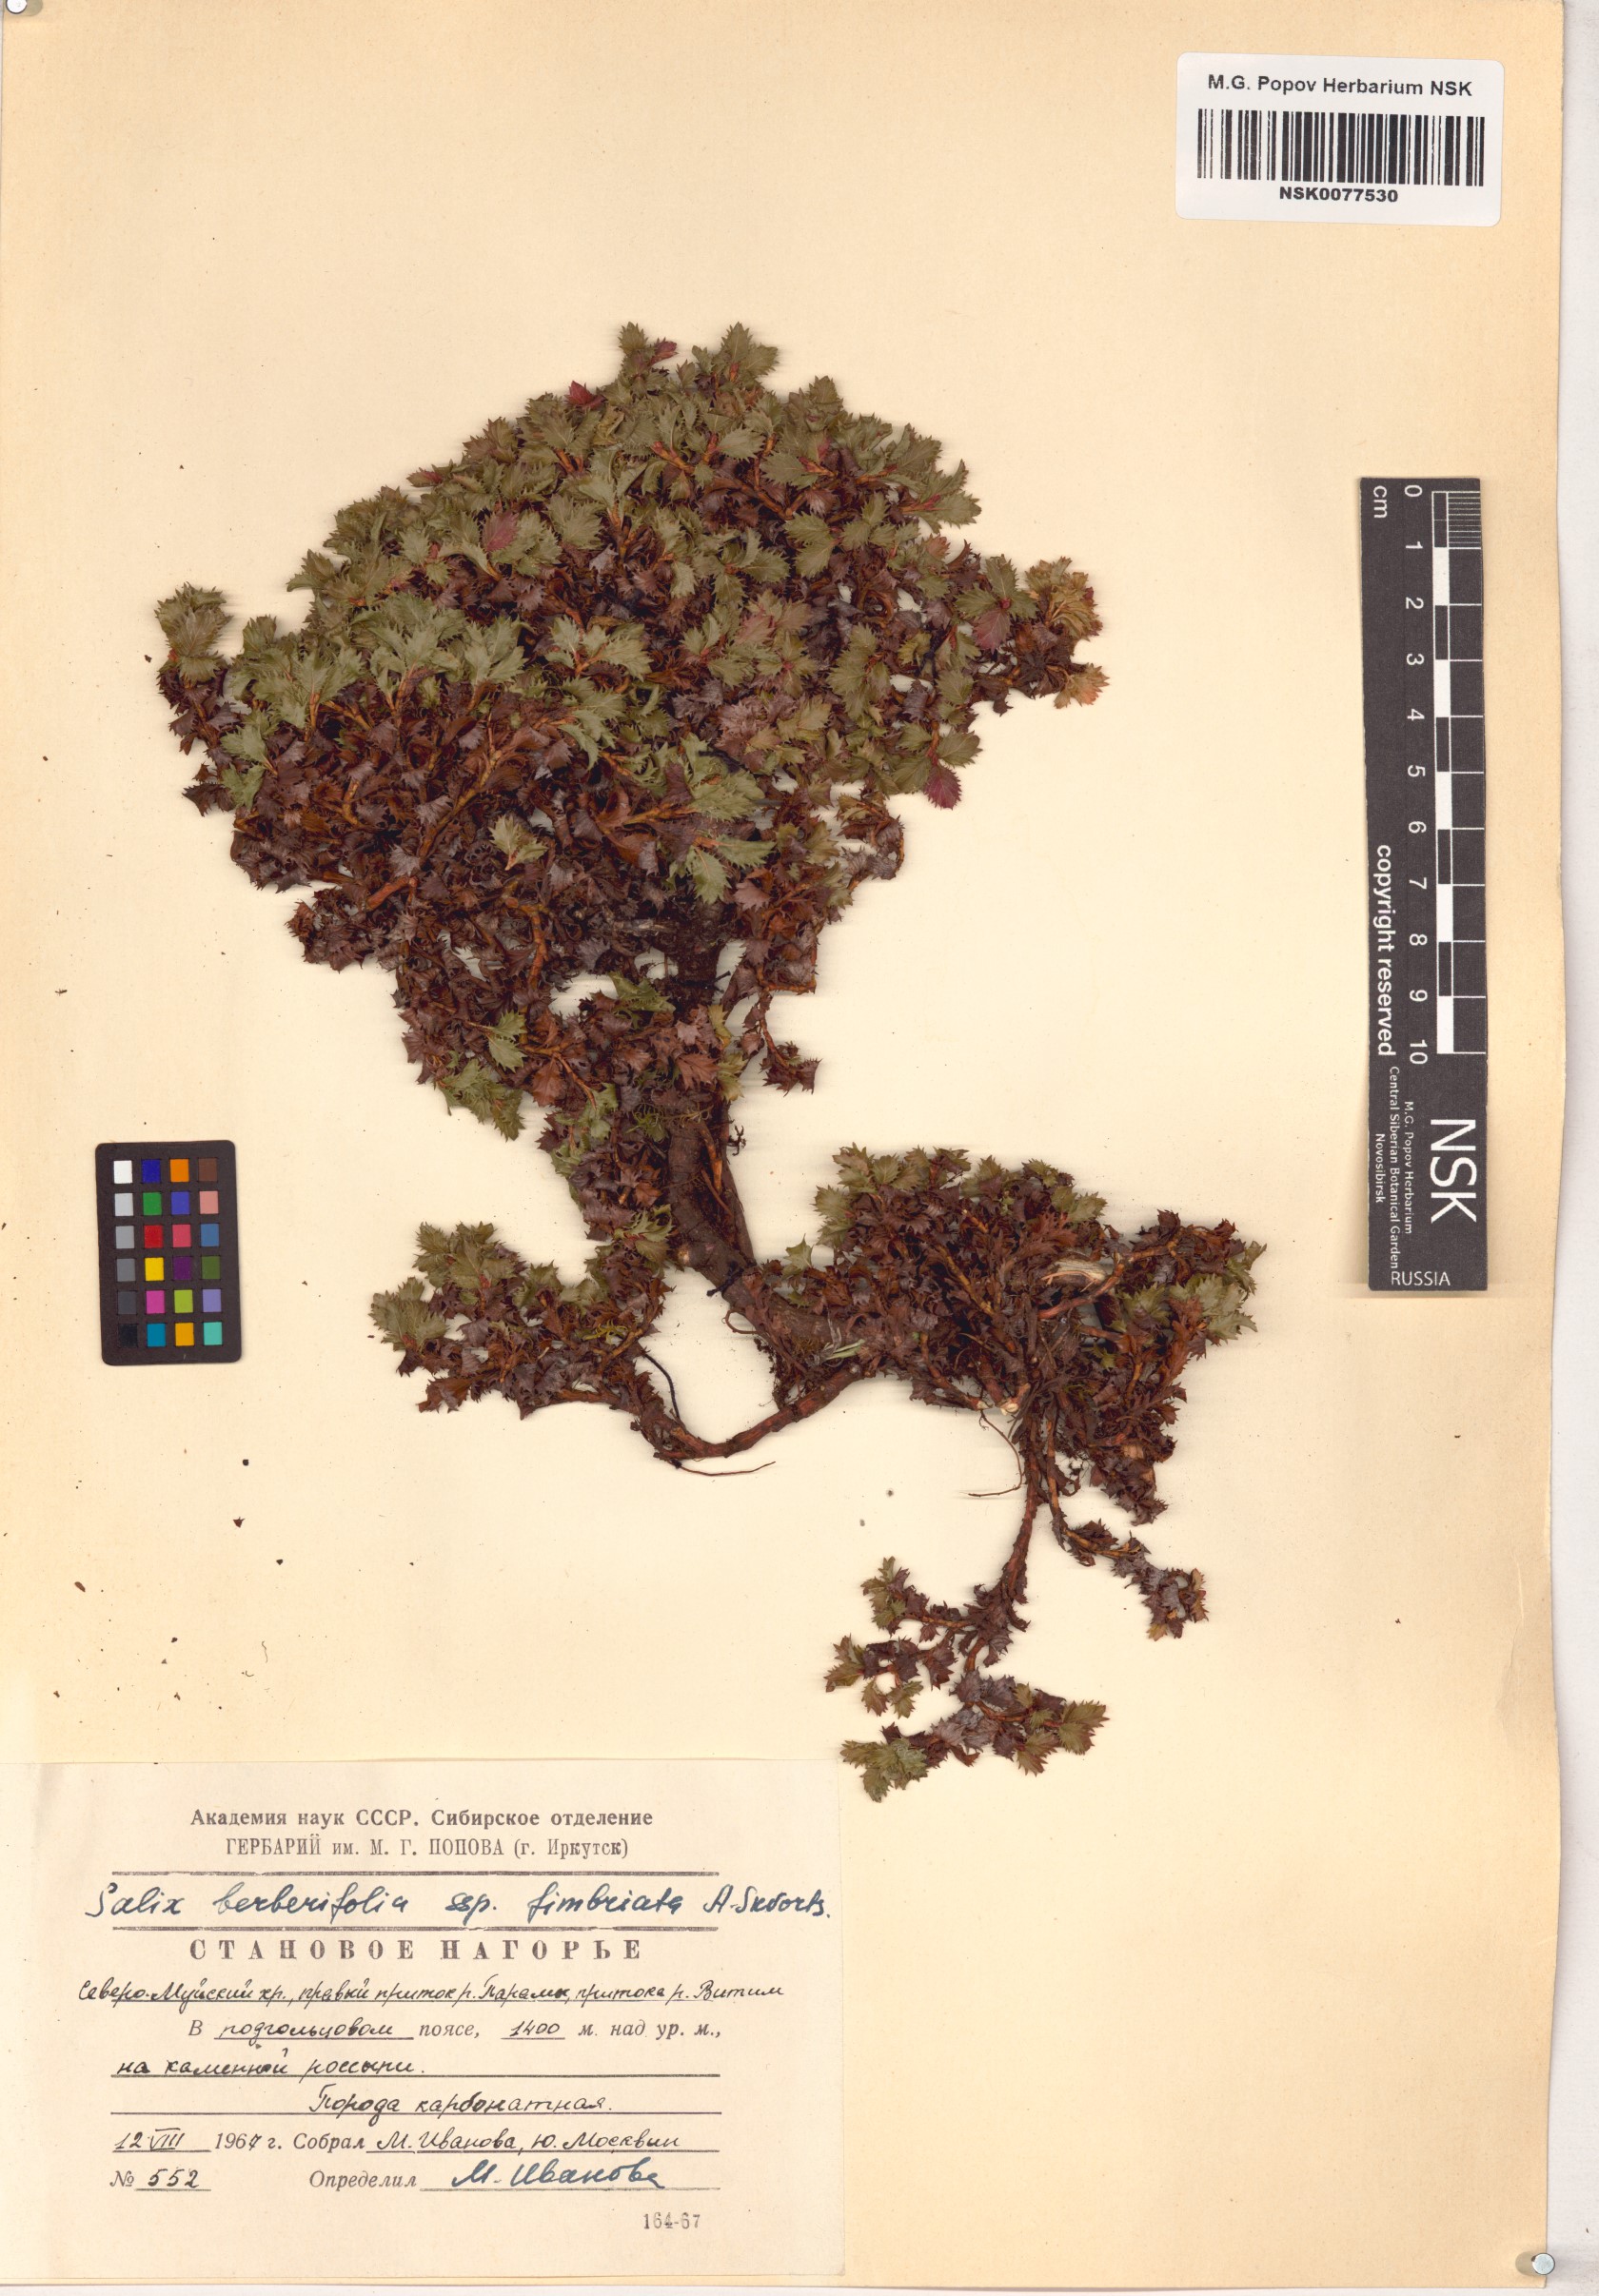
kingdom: Plantae
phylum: Tracheophyta
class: Magnoliopsida
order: Malpighiales
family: Salicaceae
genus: Salix
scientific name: Salix berberifolia
